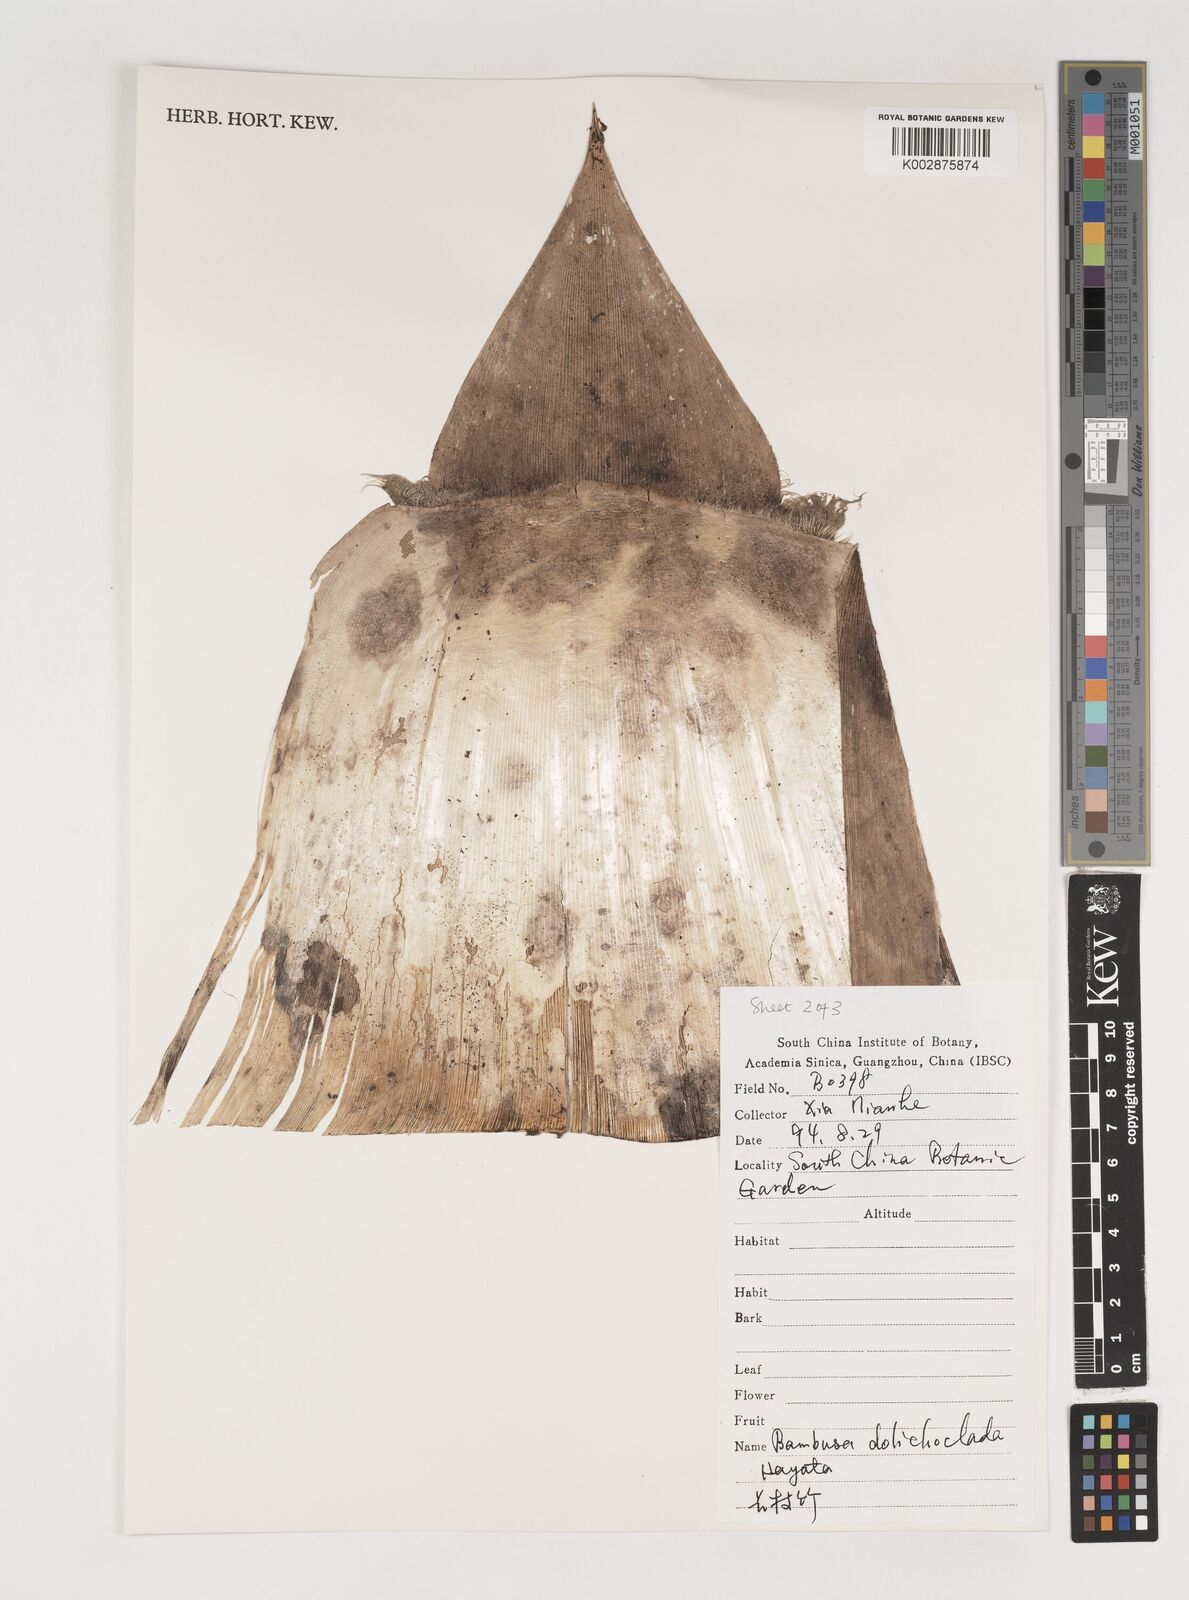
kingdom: Plantae
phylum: Tracheophyta
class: Liliopsida
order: Poales
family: Poaceae
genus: Bambusa
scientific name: Bambusa dolichoclada
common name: Long-shoot bamboo
